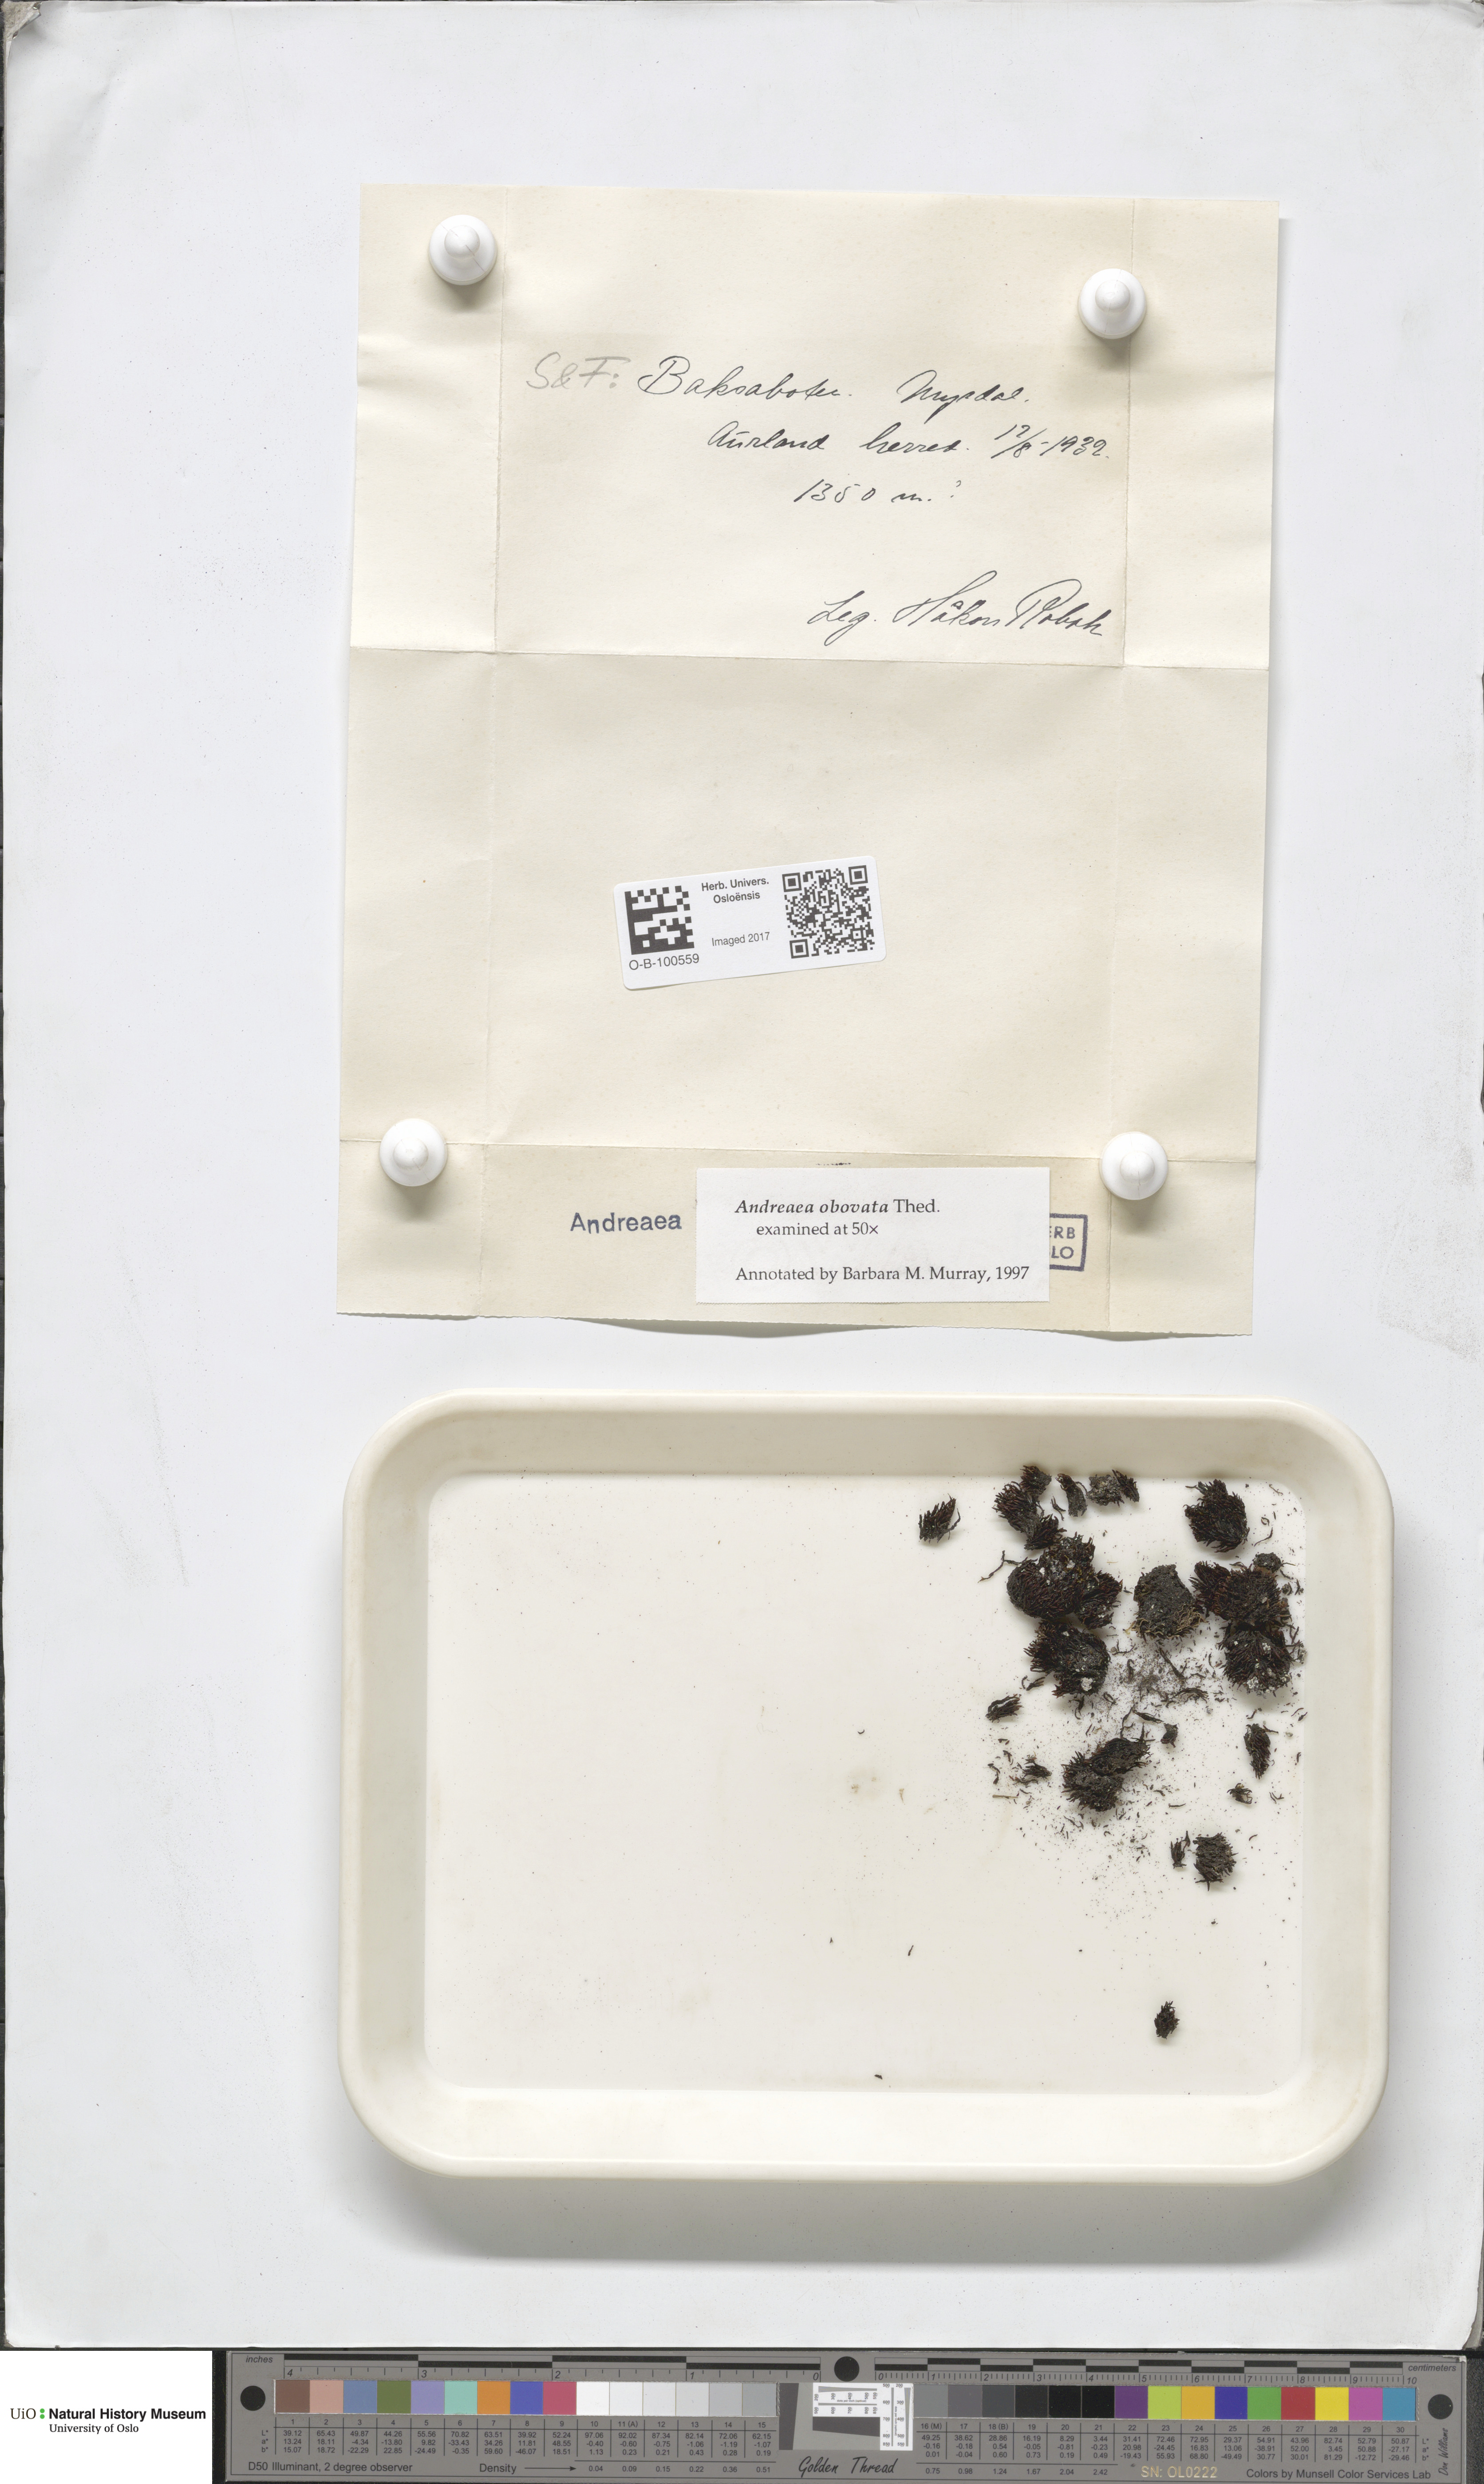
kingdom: Plantae
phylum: Bryophyta
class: Andreaeopsida
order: Andreaeales
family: Andreaeaceae
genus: Andreaea
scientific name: Andreaea alpina
